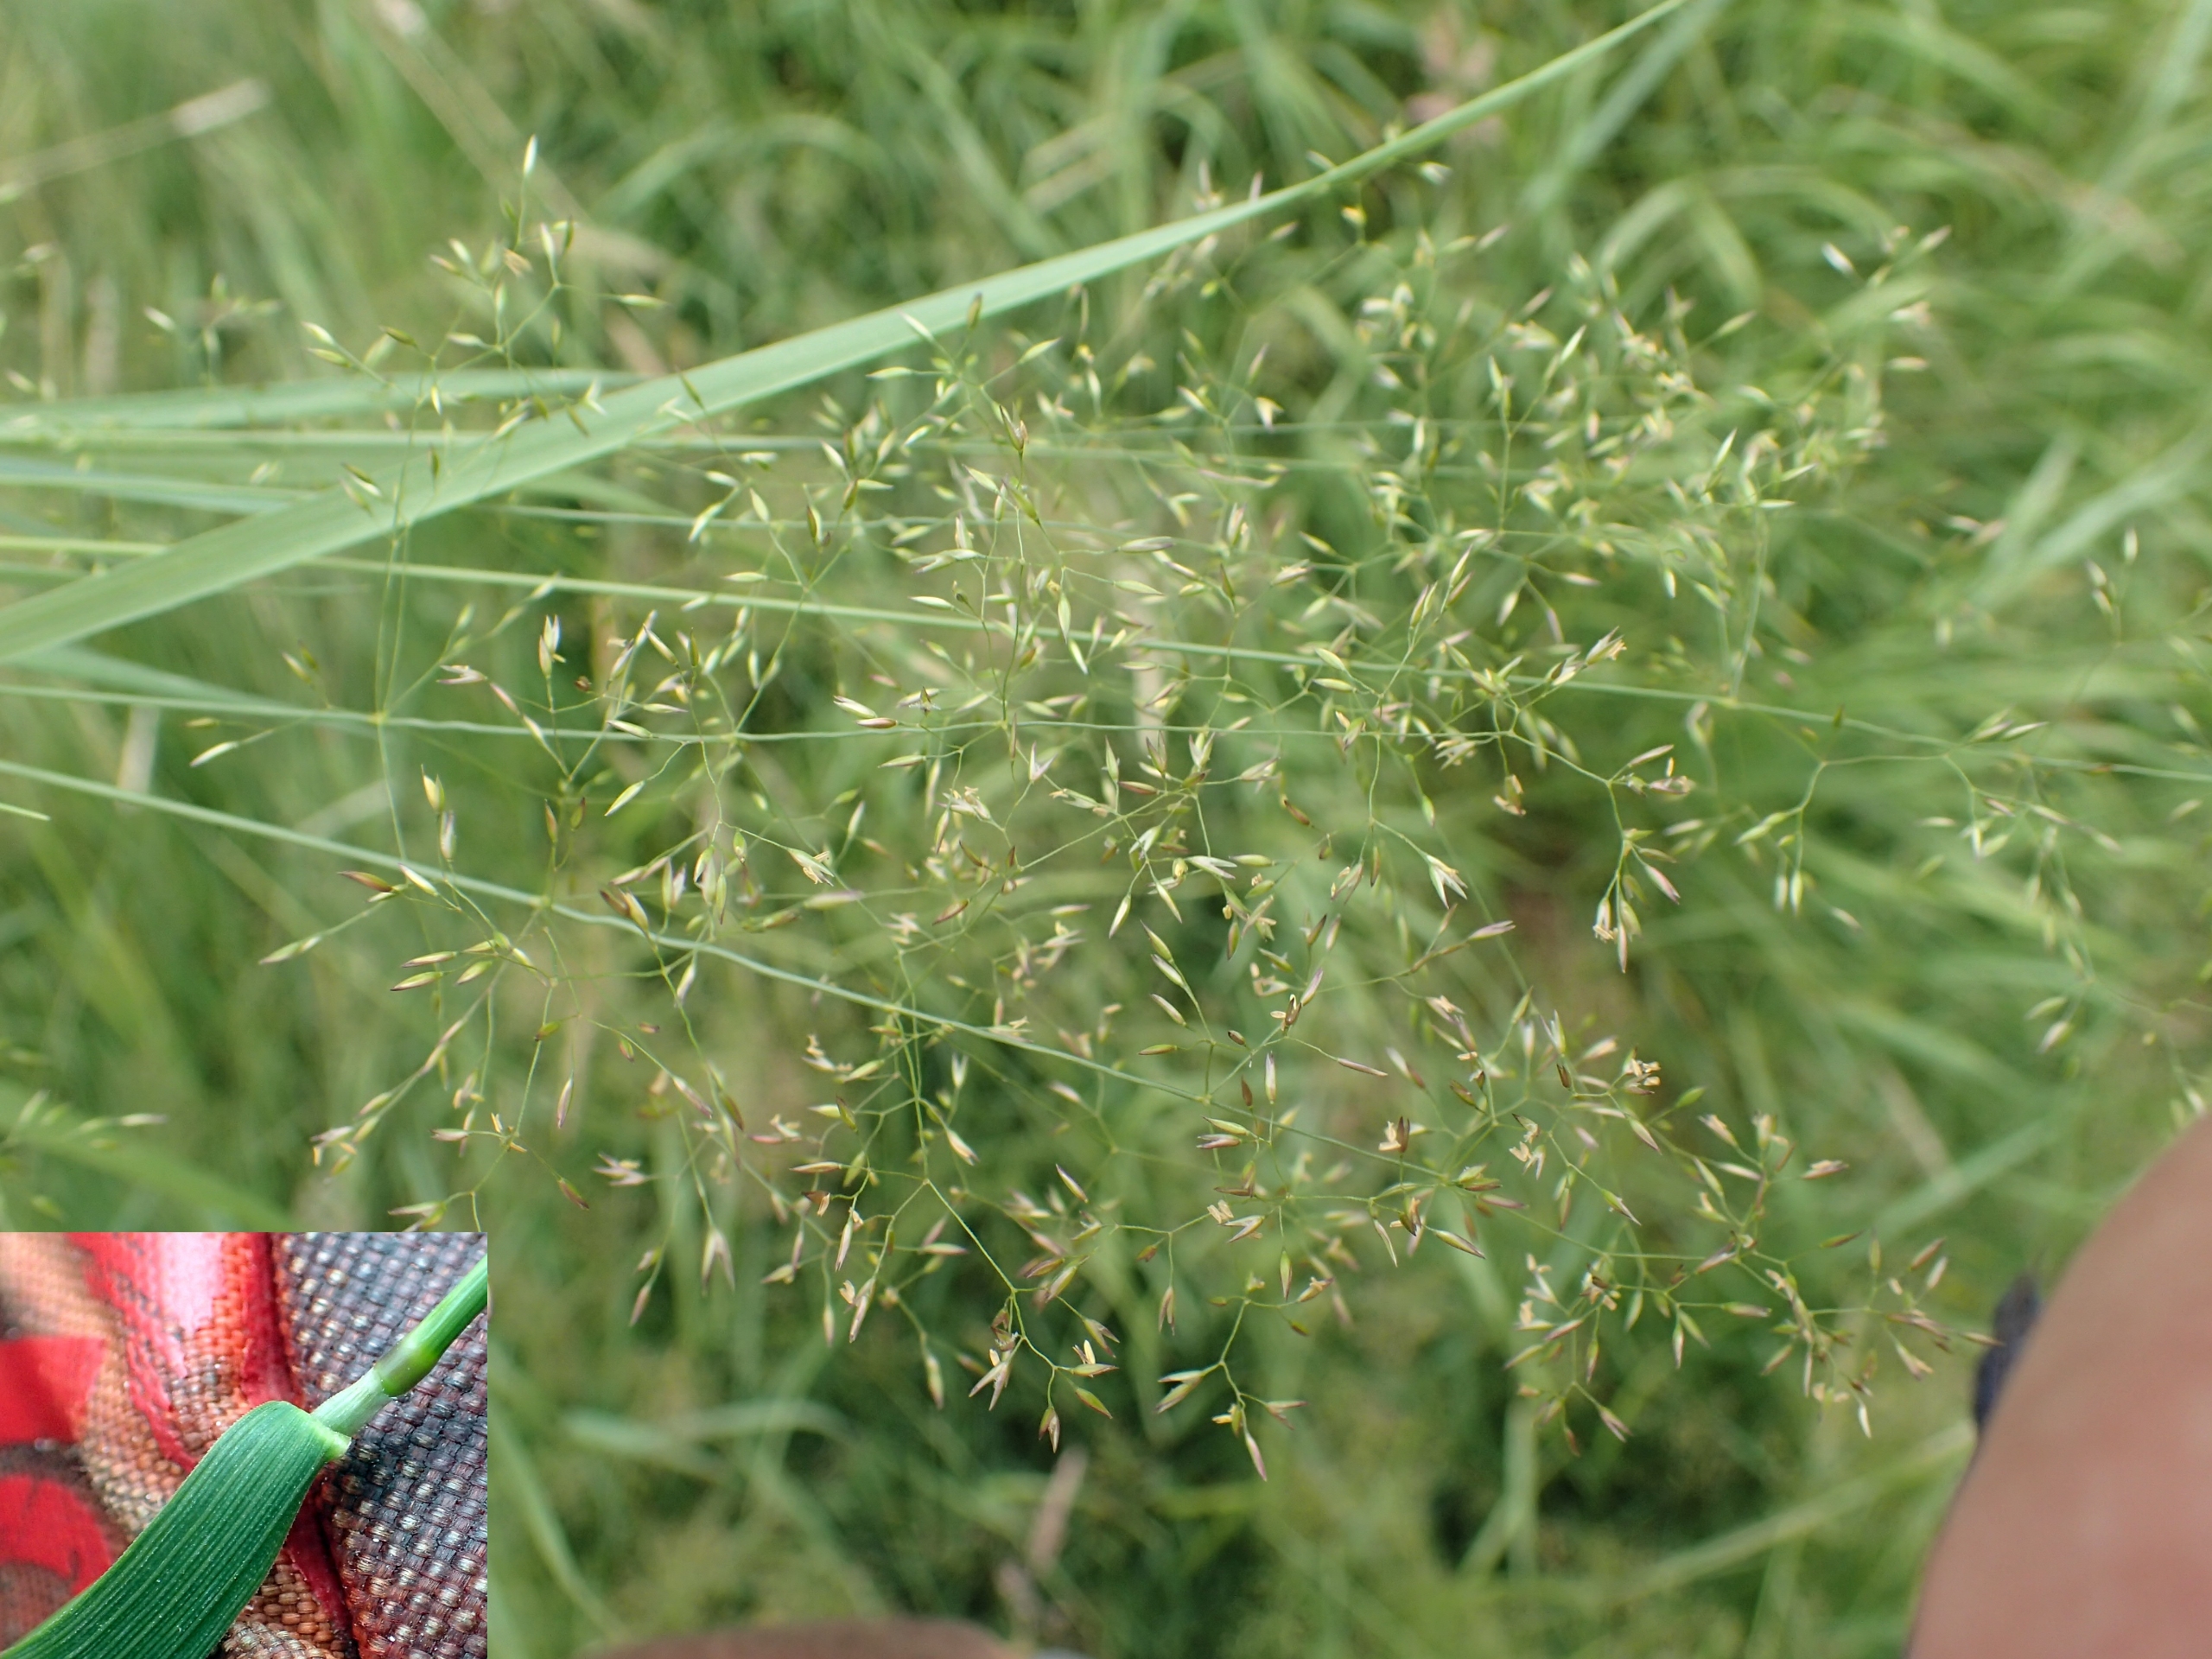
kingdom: Plantae
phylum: Tracheophyta
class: Liliopsida
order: Poales
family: Poaceae
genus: Agrostis
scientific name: Agrostis capillaris
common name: Almindelig hvene
